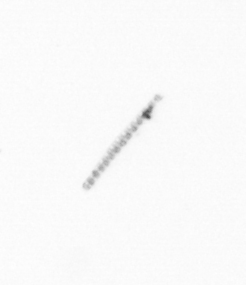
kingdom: Chromista
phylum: Ochrophyta
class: Bacillariophyceae
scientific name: Bacillariophyceae
